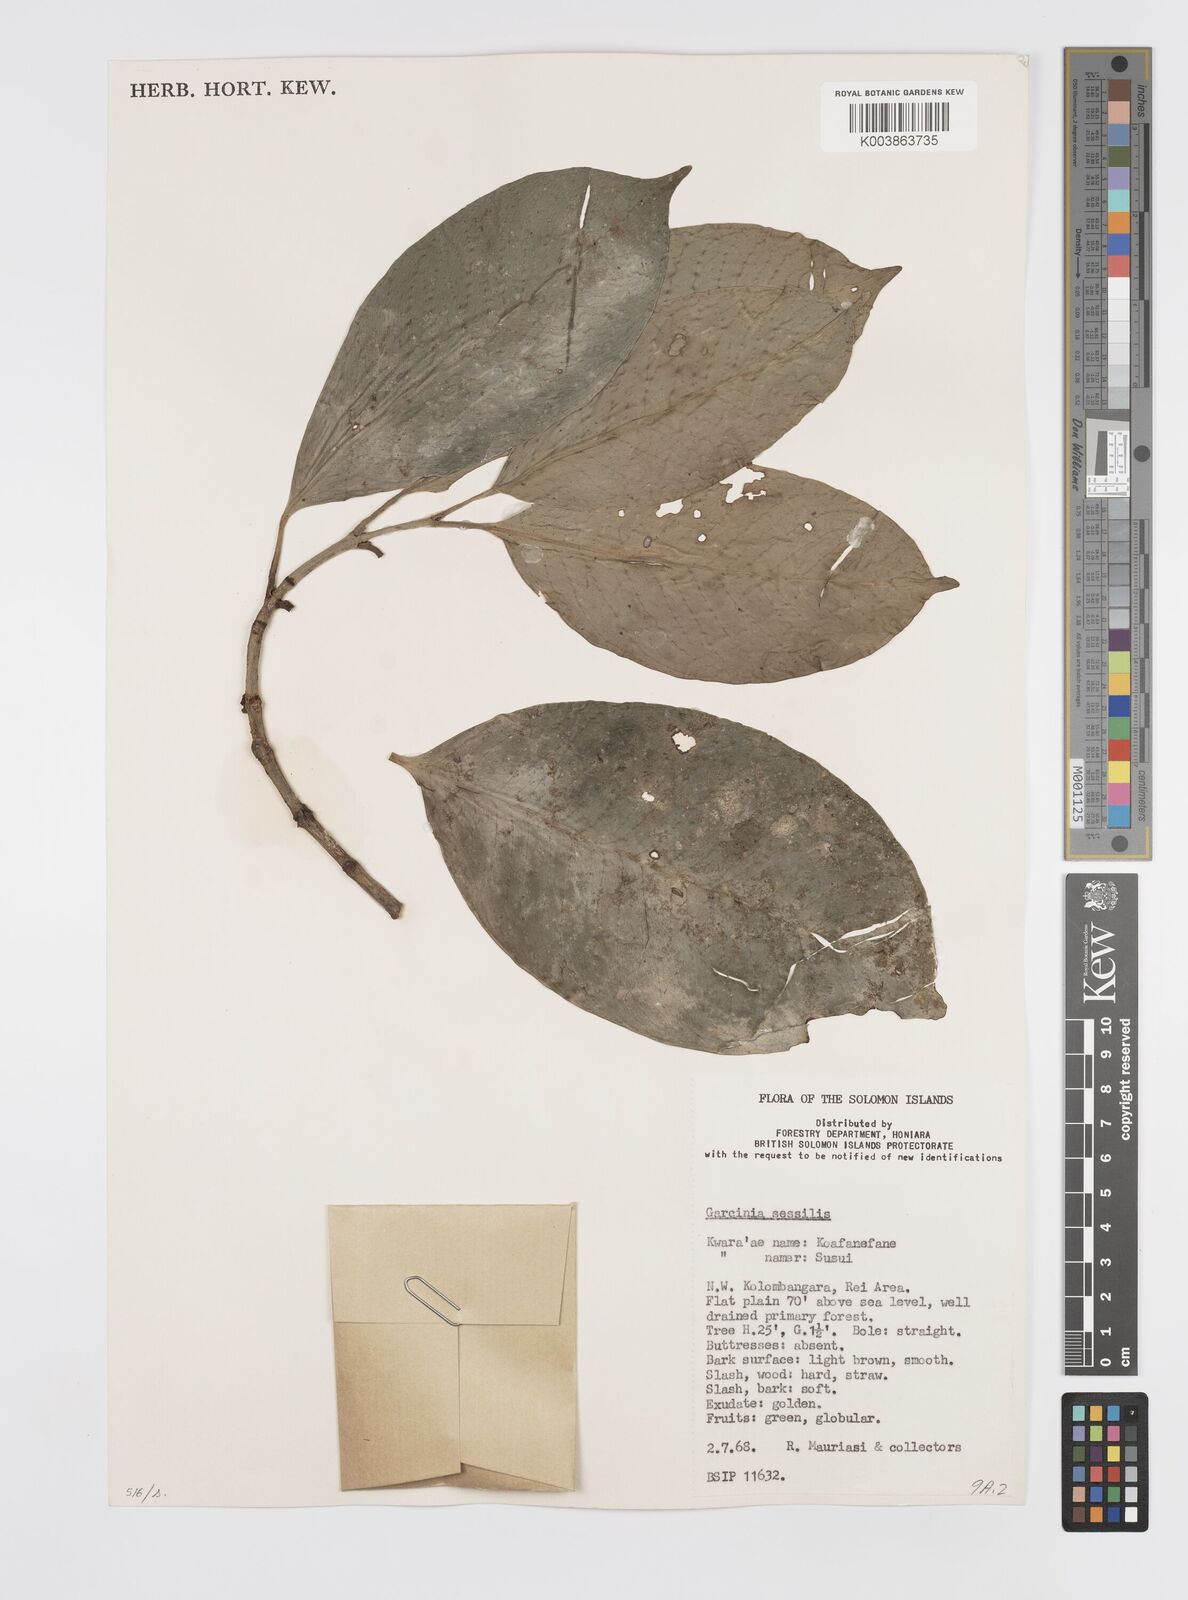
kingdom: Plantae
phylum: Tracheophyta
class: Magnoliopsida
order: Malpighiales
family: Clusiaceae
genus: Garcinia
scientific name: Garcinia sessilis
